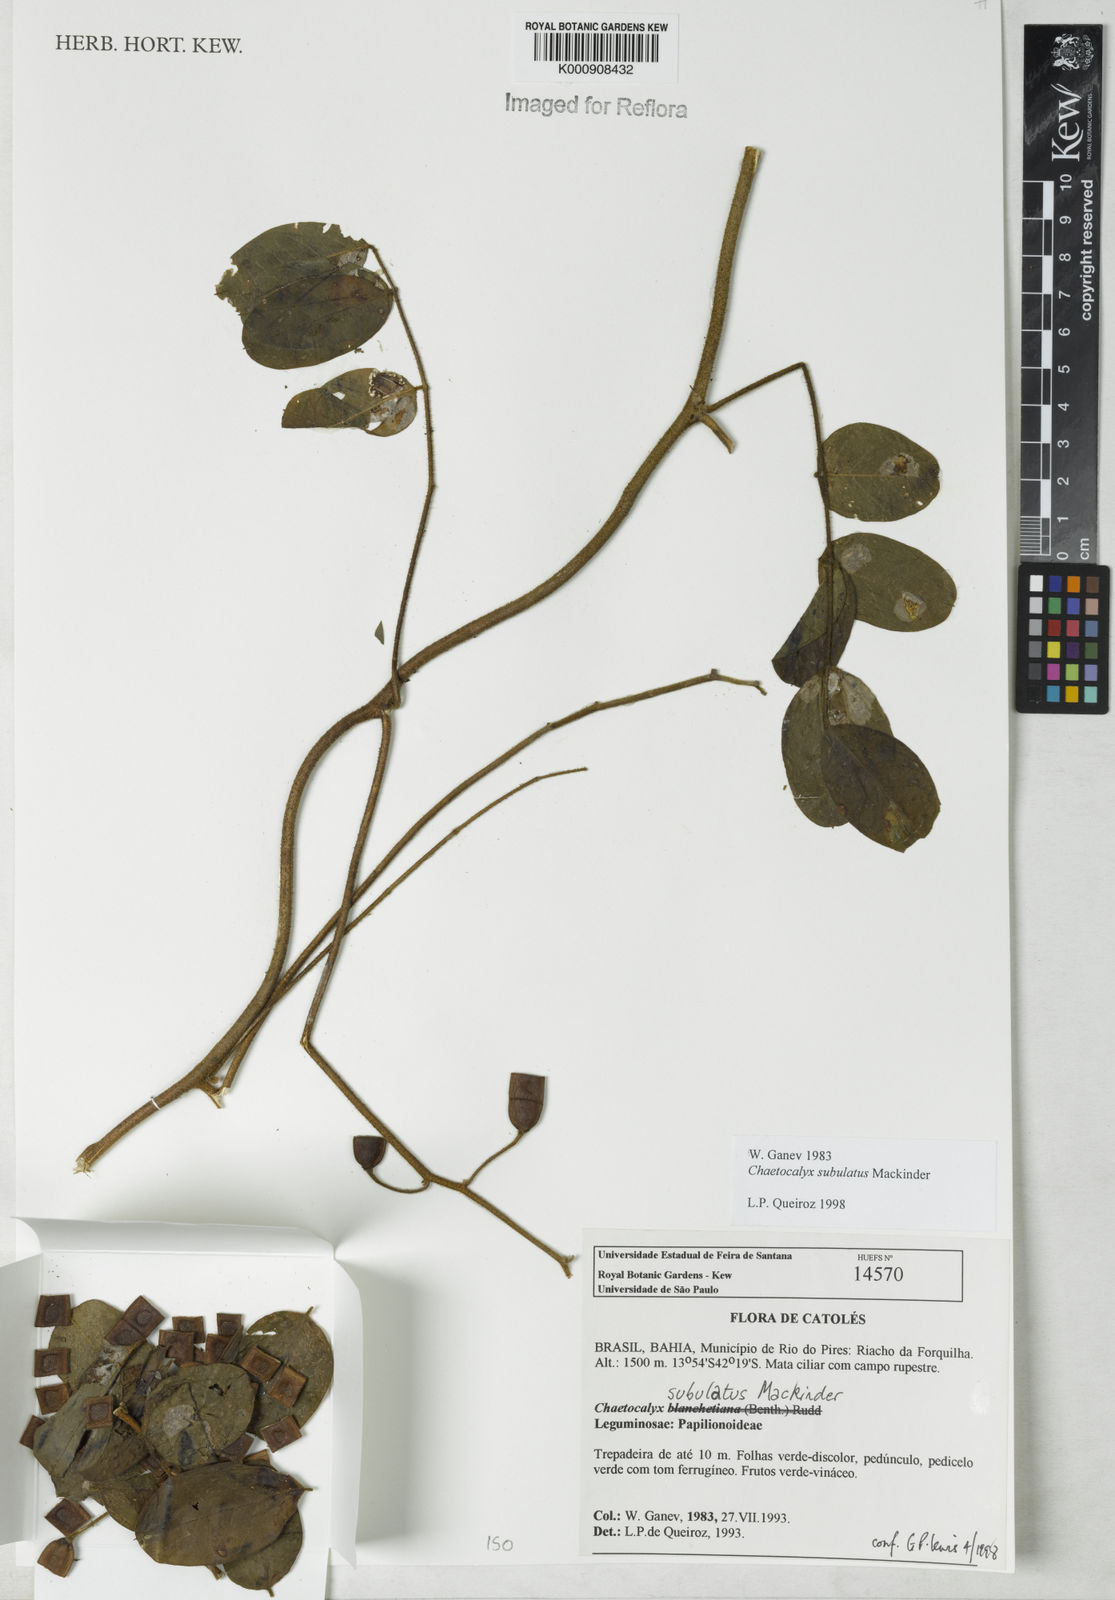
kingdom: Plantae
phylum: Tracheophyta
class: Magnoliopsida
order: Fabales
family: Fabaceae
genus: Nissolia
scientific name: Nissolia subulata
